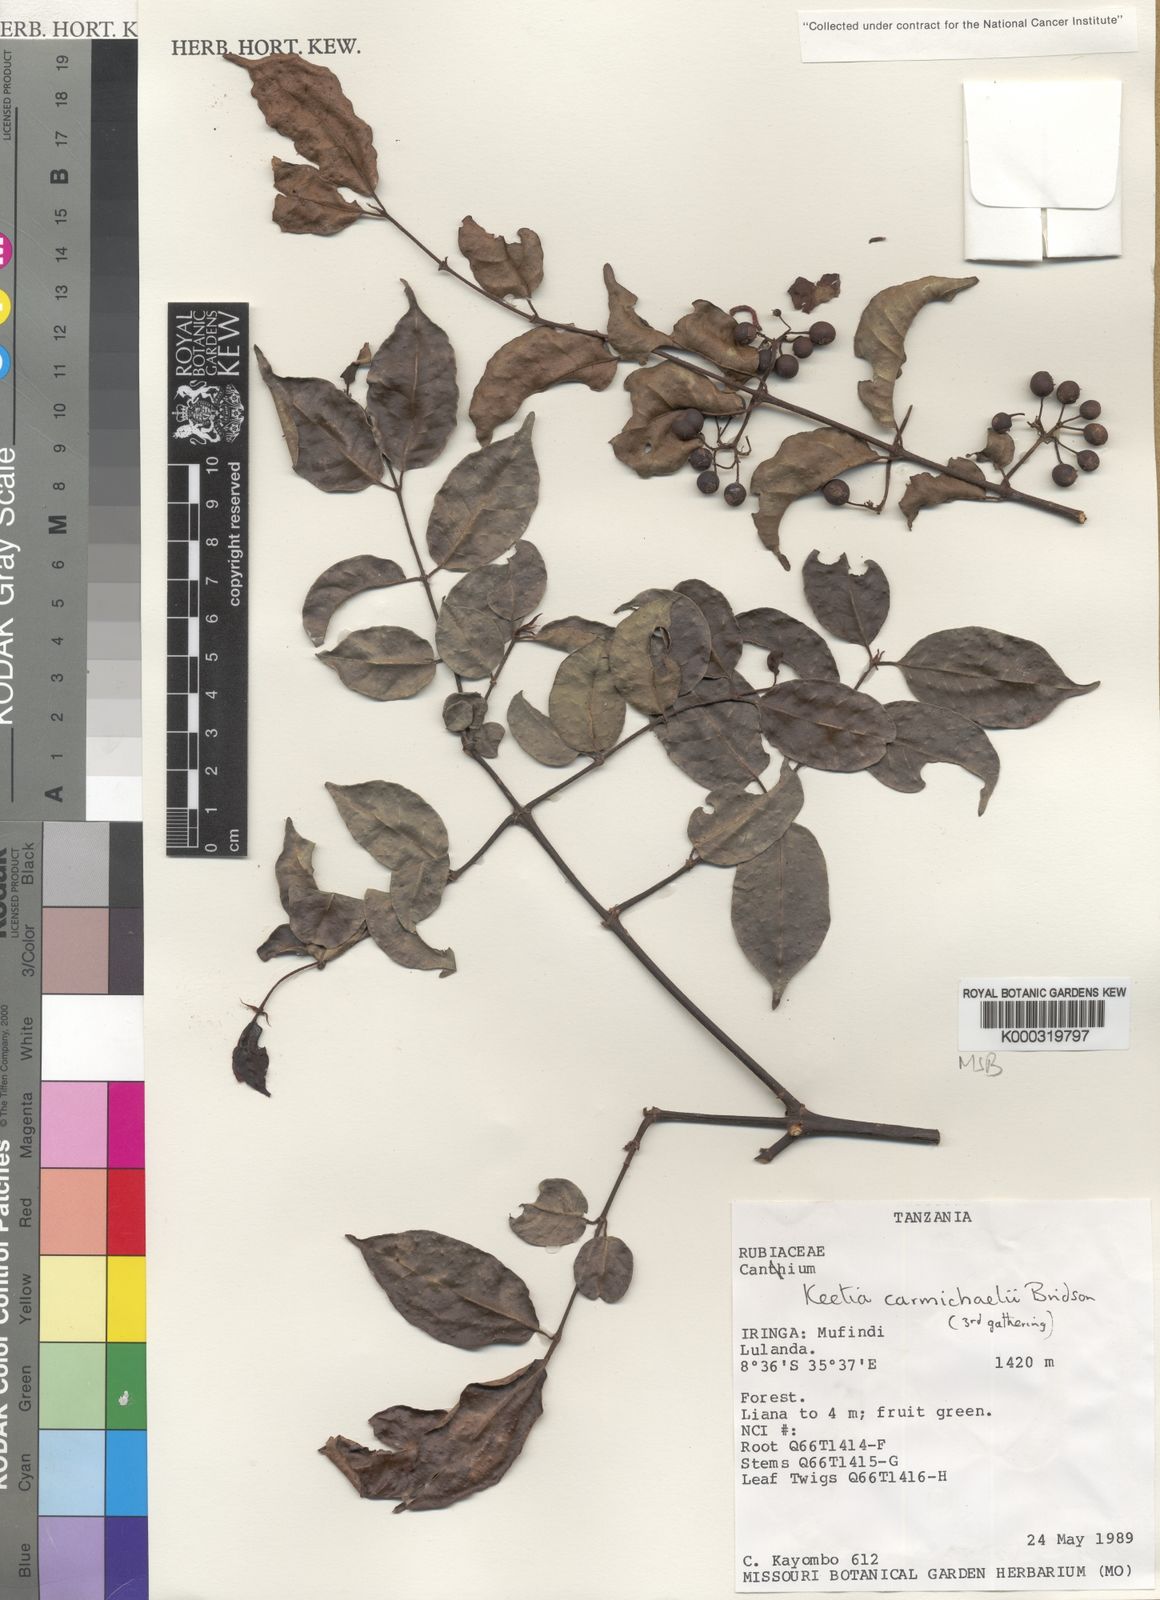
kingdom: Plantae
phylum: Tracheophyta
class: Magnoliopsida
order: Gentianales
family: Rubiaceae
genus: Keetia
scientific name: Keetia
